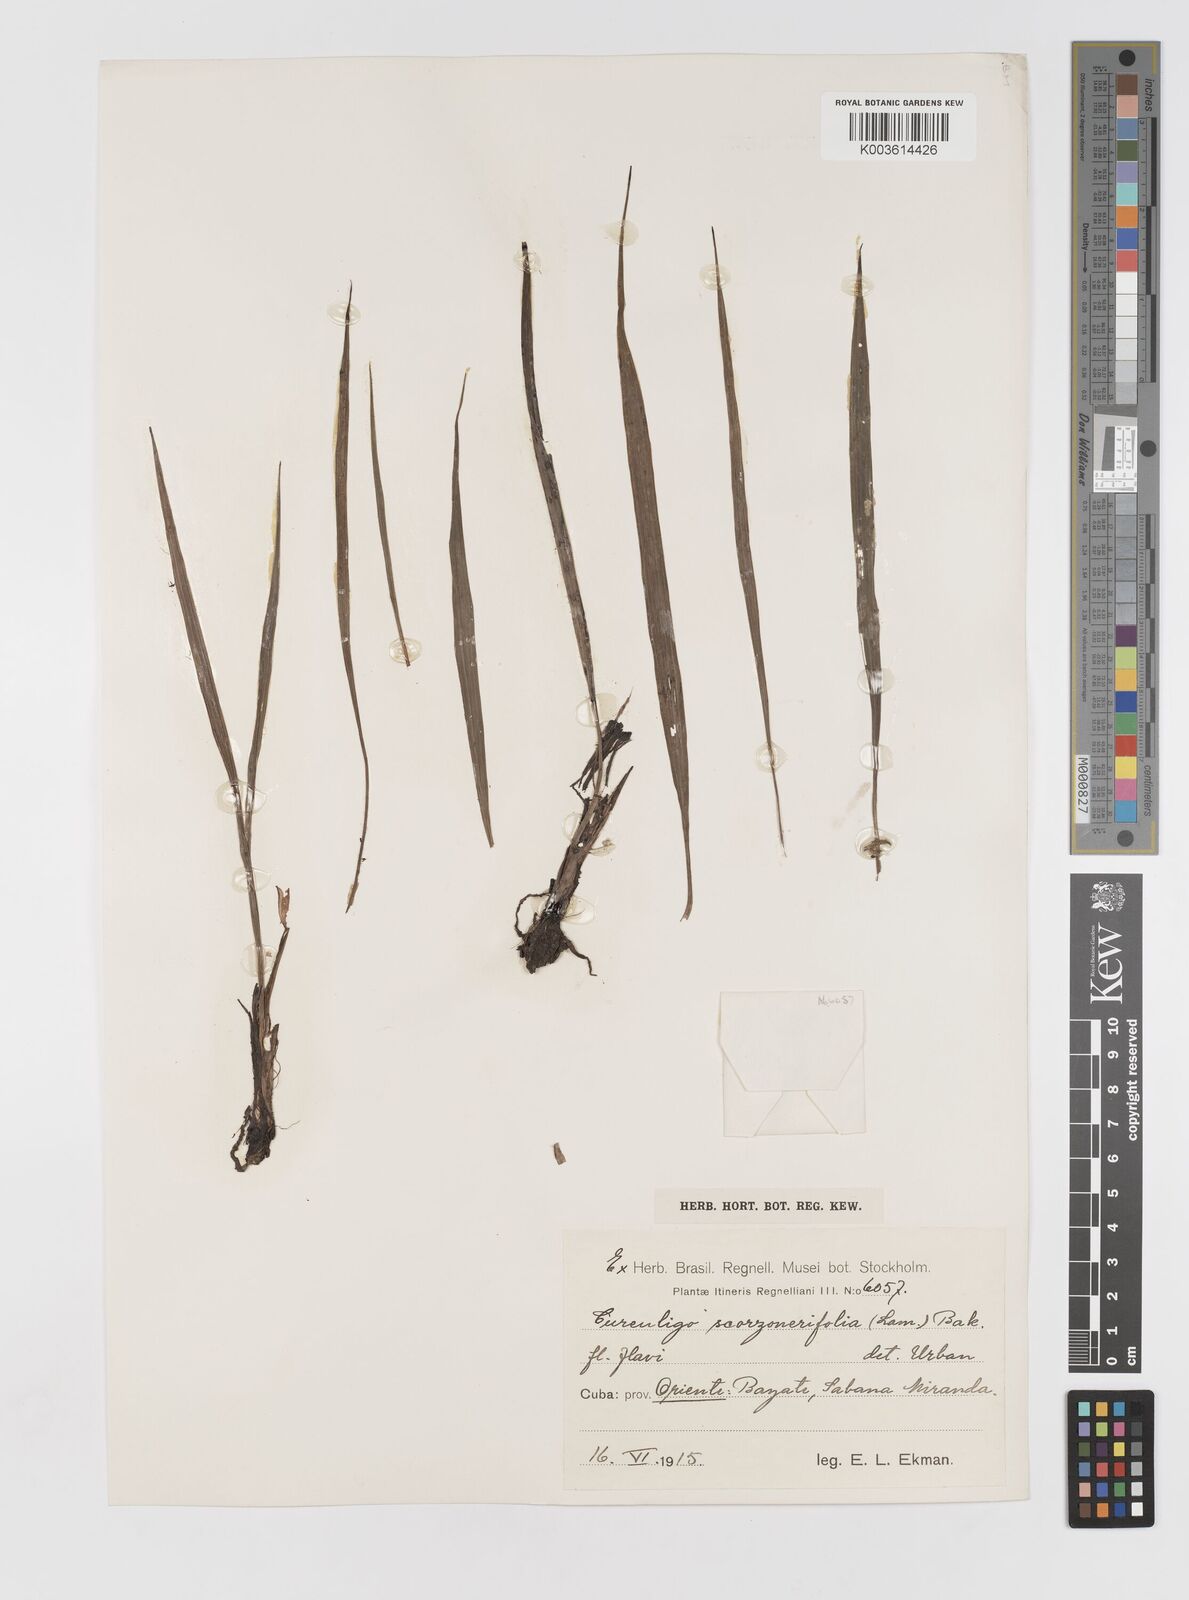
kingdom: Plantae
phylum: Tracheophyta
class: Liliopsida
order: Asparagales
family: Hypoxidaceae
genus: Curculigo
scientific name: Curculigo scorzonerifolia
